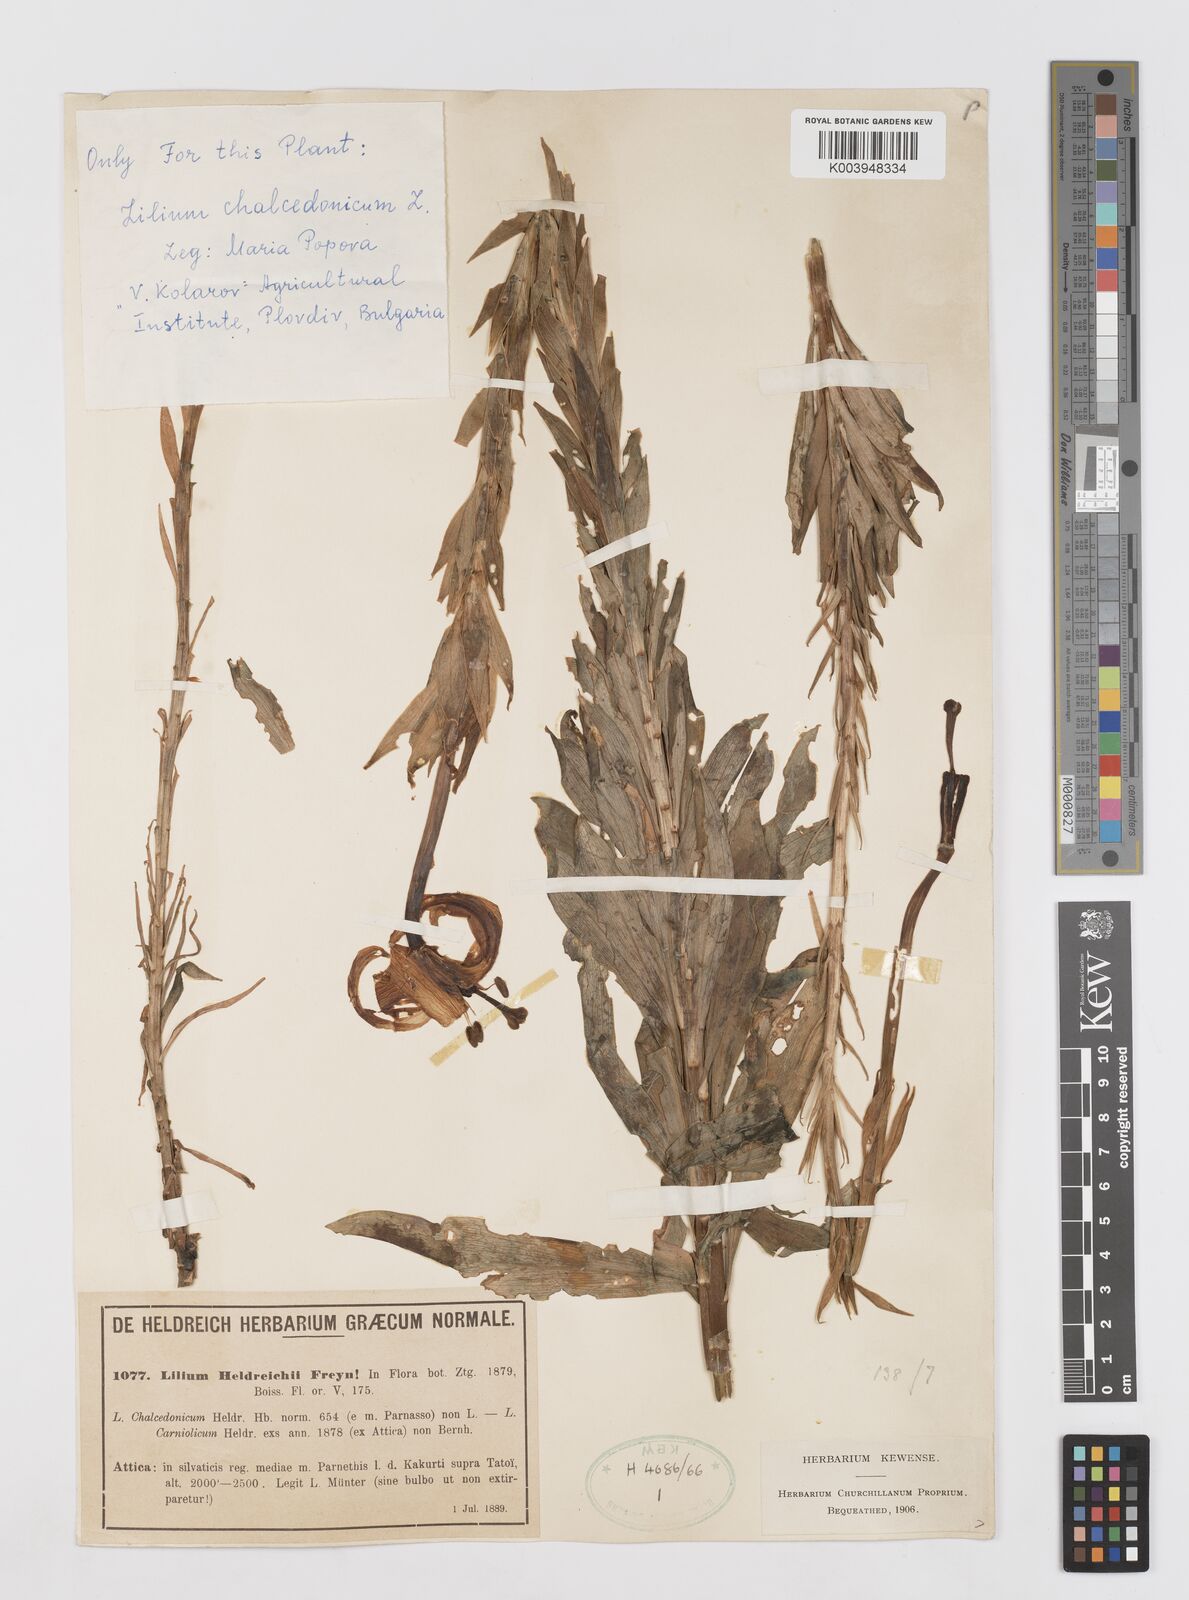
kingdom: Plantae
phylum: Tracheophyta
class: Liliopsida
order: Liliales
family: Liliaceae
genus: Lilium
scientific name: Lilium chalcedonicum
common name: Red martagon of constantinople
